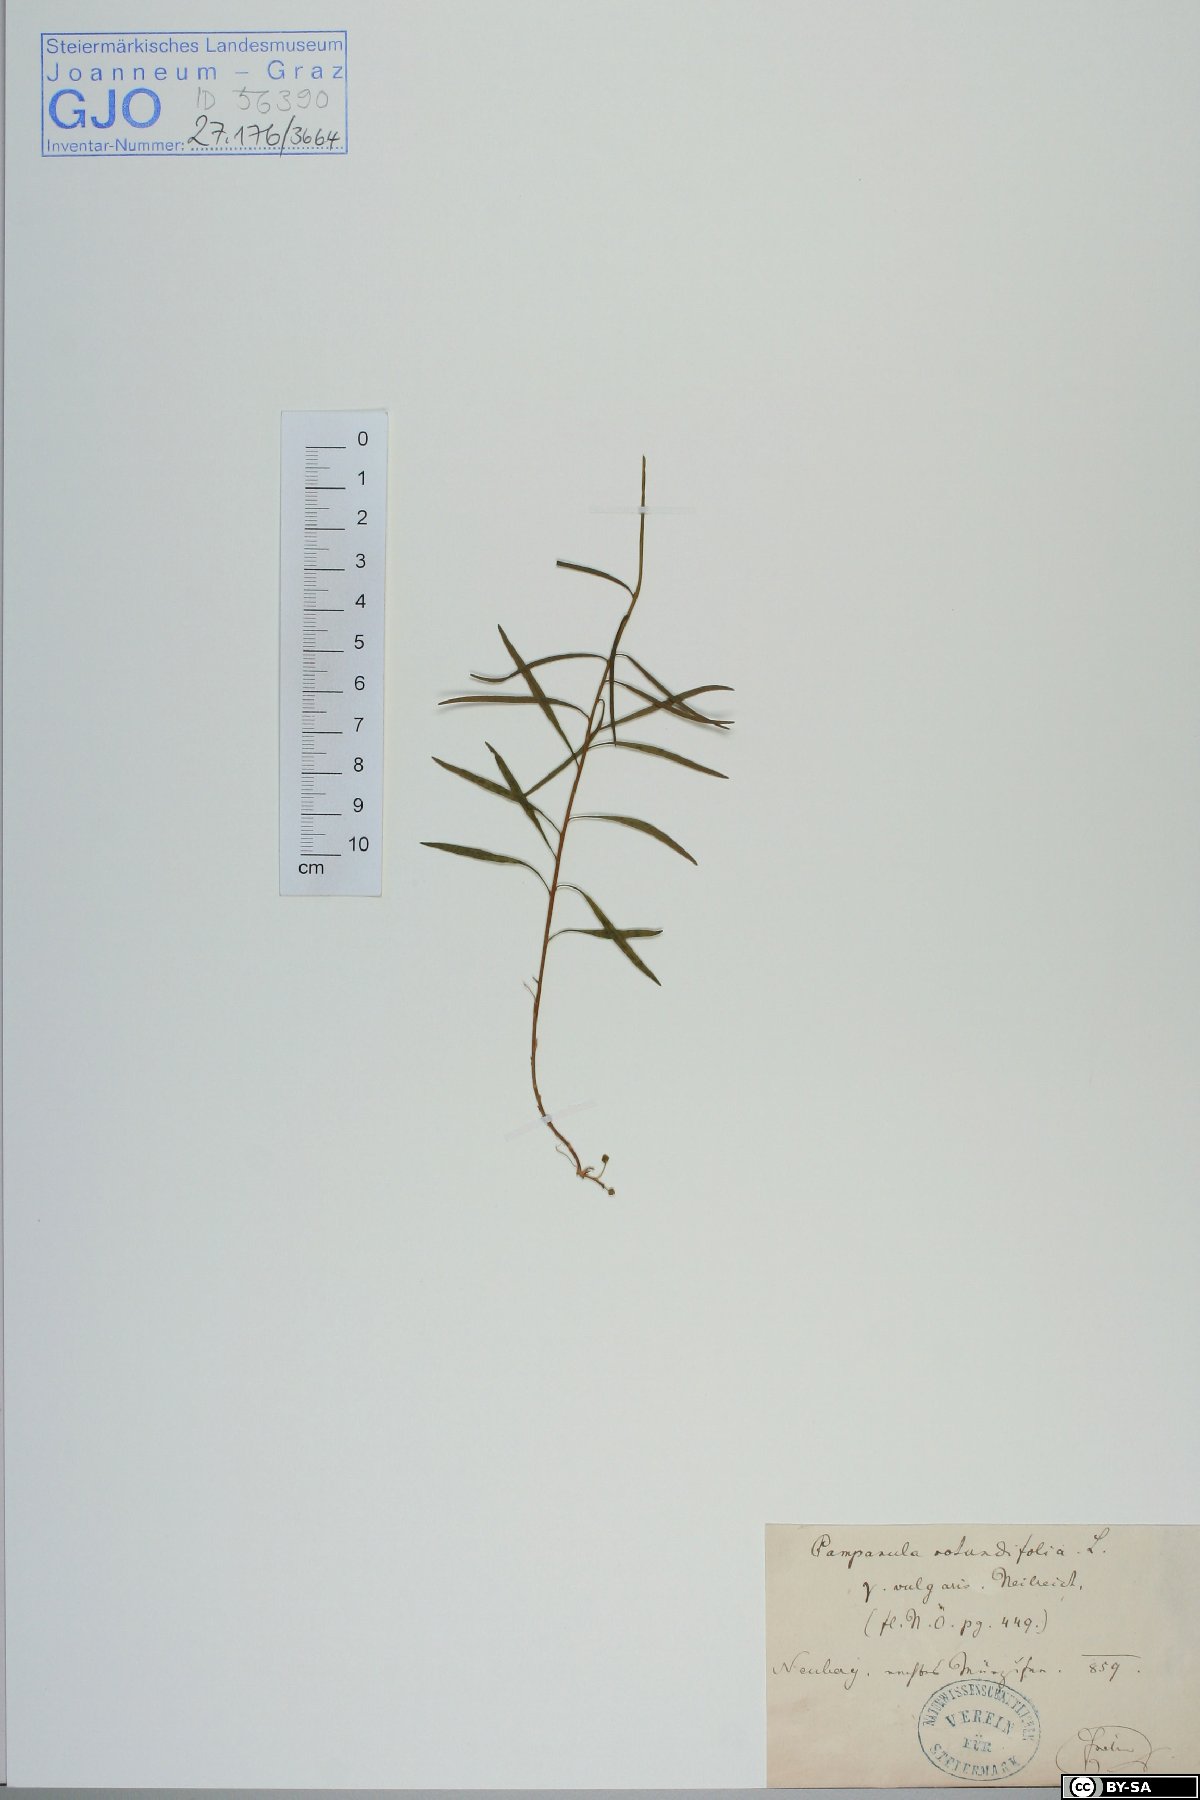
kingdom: Plantae
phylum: Tracheophyta
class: Magnoliopsida
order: Asterales
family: Campanulaceae
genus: Campanula
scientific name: Campanula rotundifolia
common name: Harebell
